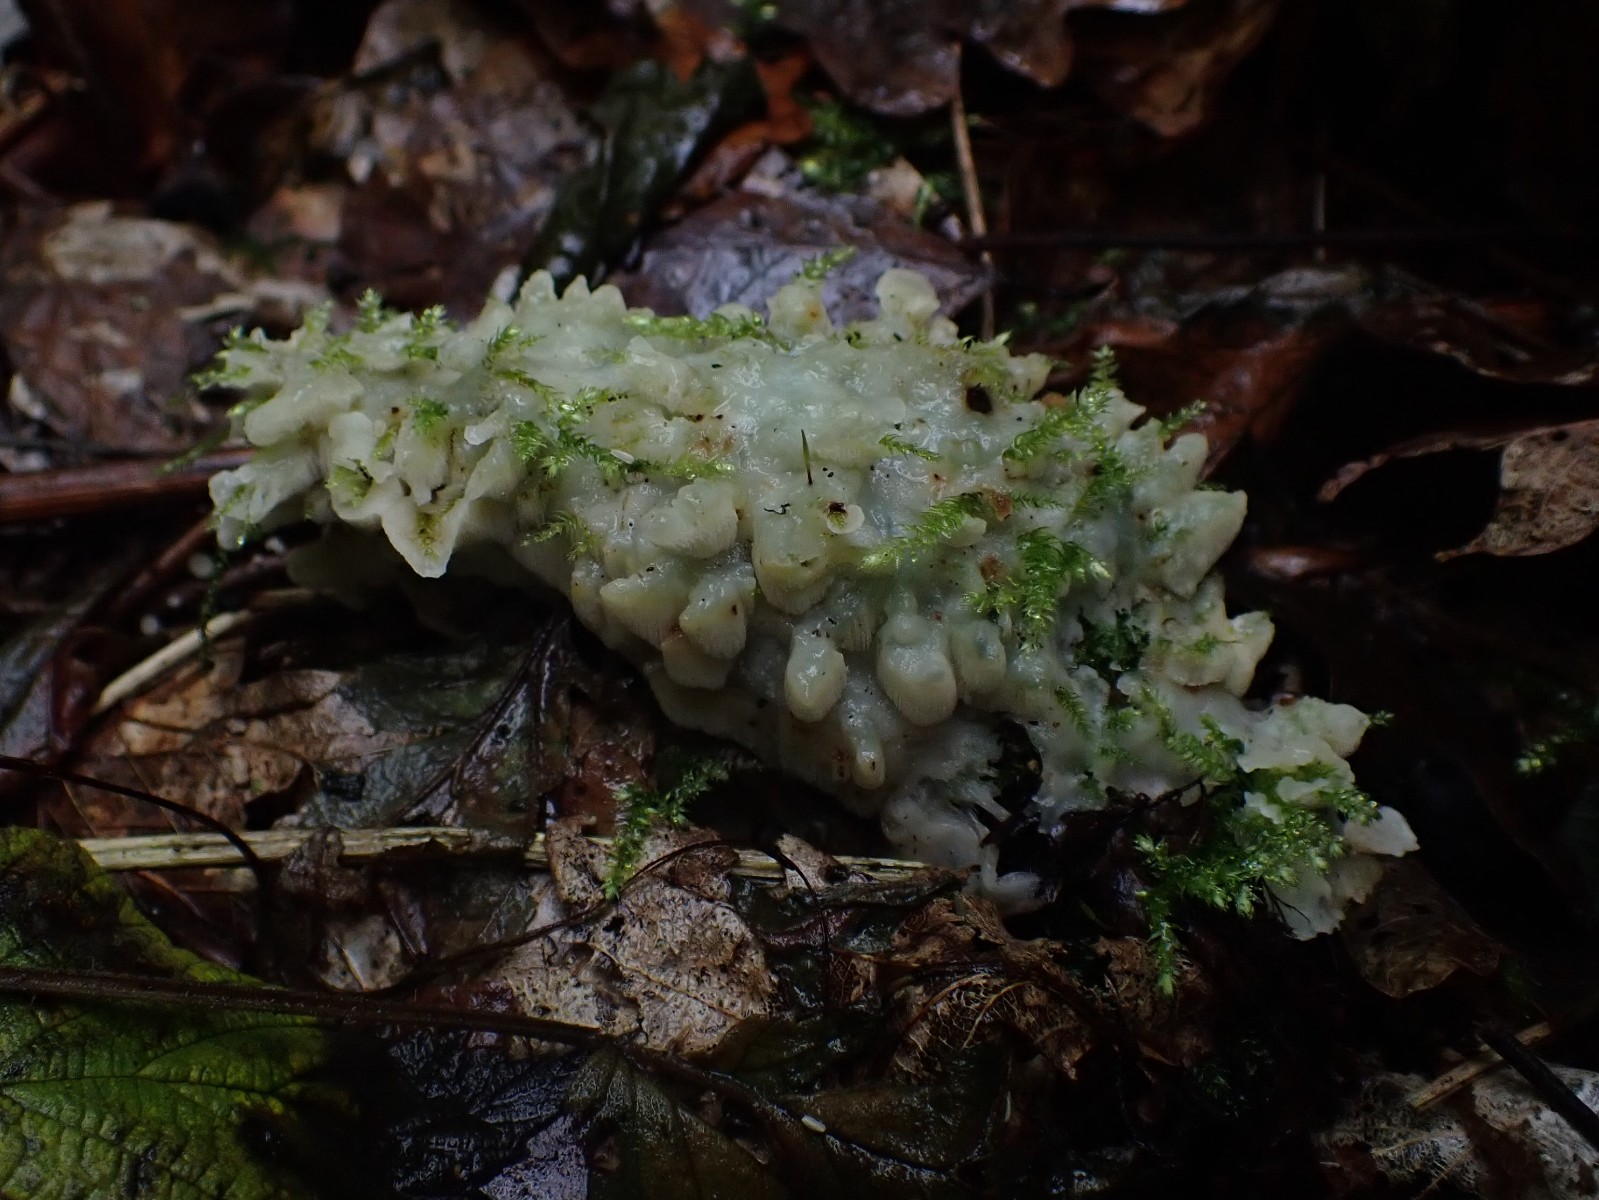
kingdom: Fungi
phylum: Basidiomycota
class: Agaricomycetes
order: Polyporales
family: Meruliaceae
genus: Physisporinus
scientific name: Physisporinus vitreus
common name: mastesvamp
